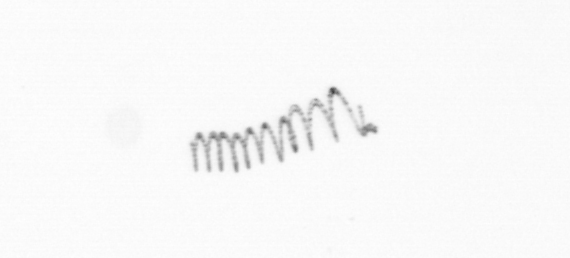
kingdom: Chromista
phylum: Ochrophyta
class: Bacillariophyceae
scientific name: Bacillariophyceae
